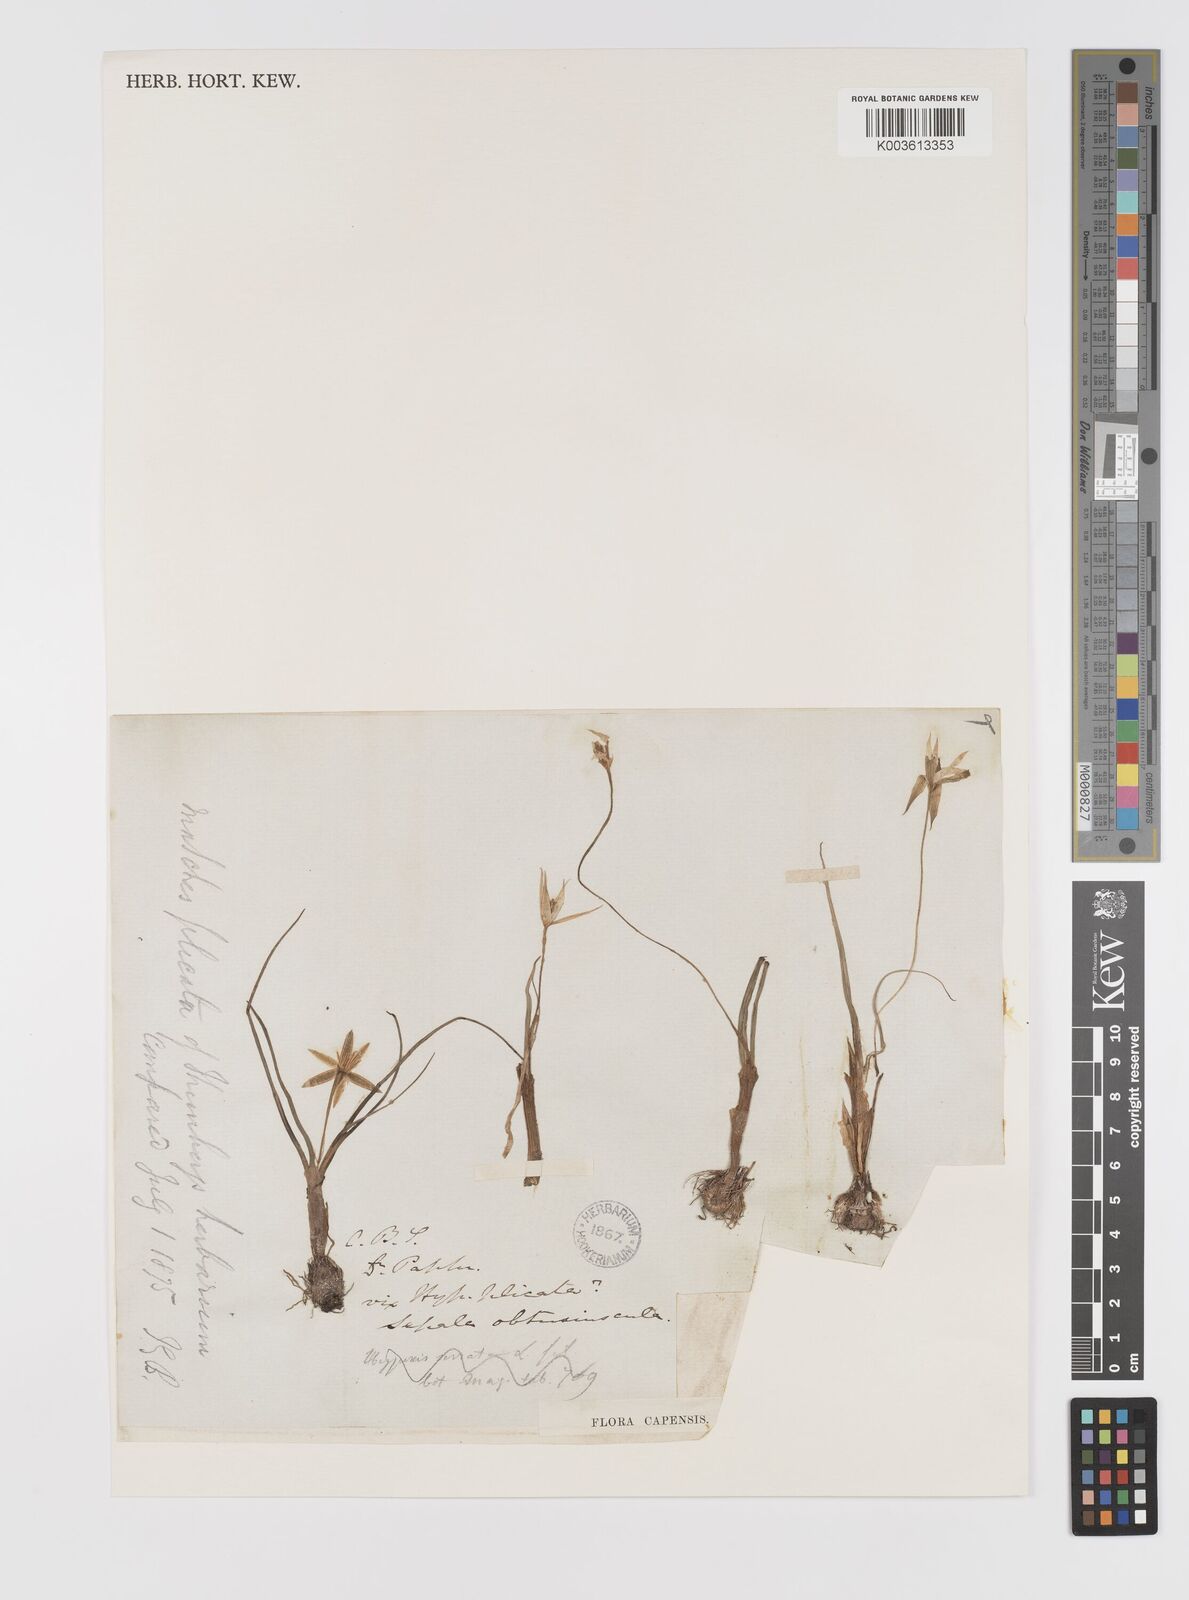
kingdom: Plantae
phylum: Tracheophyta
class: Liliopsida
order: Asparagales
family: Hypoxidaceae
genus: Empodium
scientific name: Empodium plicatum
